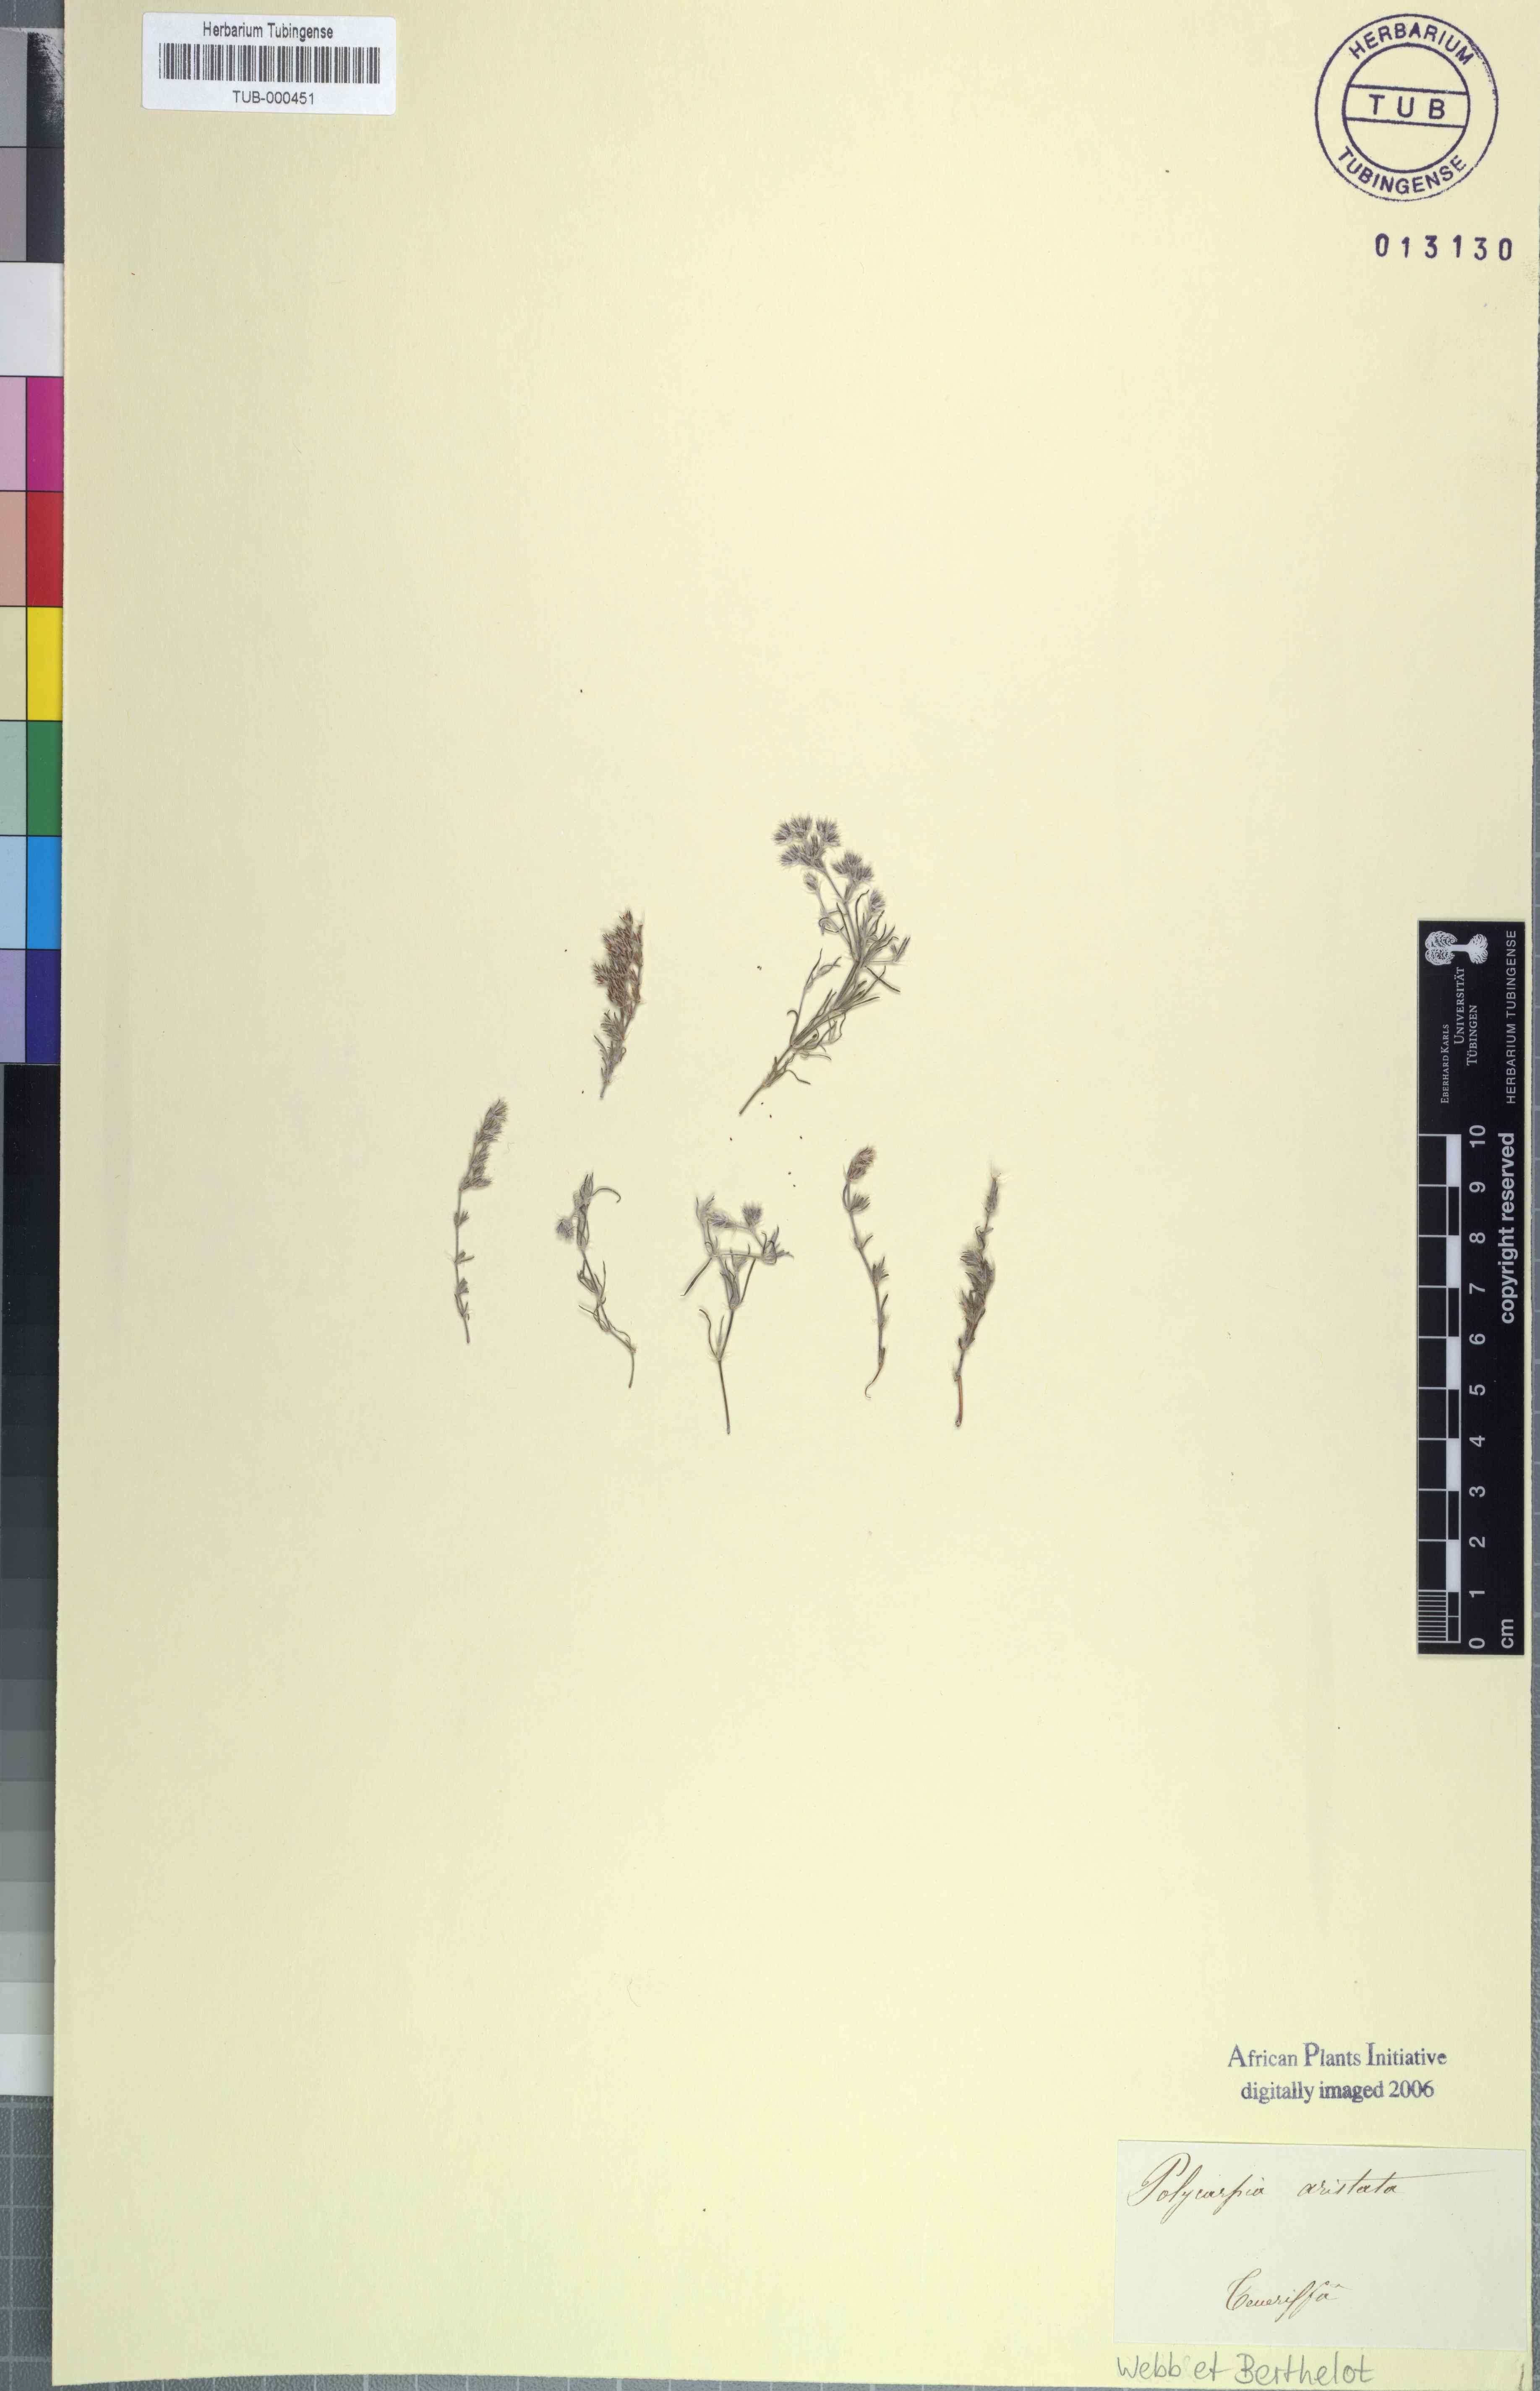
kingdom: Plantae
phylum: Tracheophyta
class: Magnoliopsida
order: Caryophyllales
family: Caryophyllaceae
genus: Polycarpon
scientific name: Polycarpon succulentum
